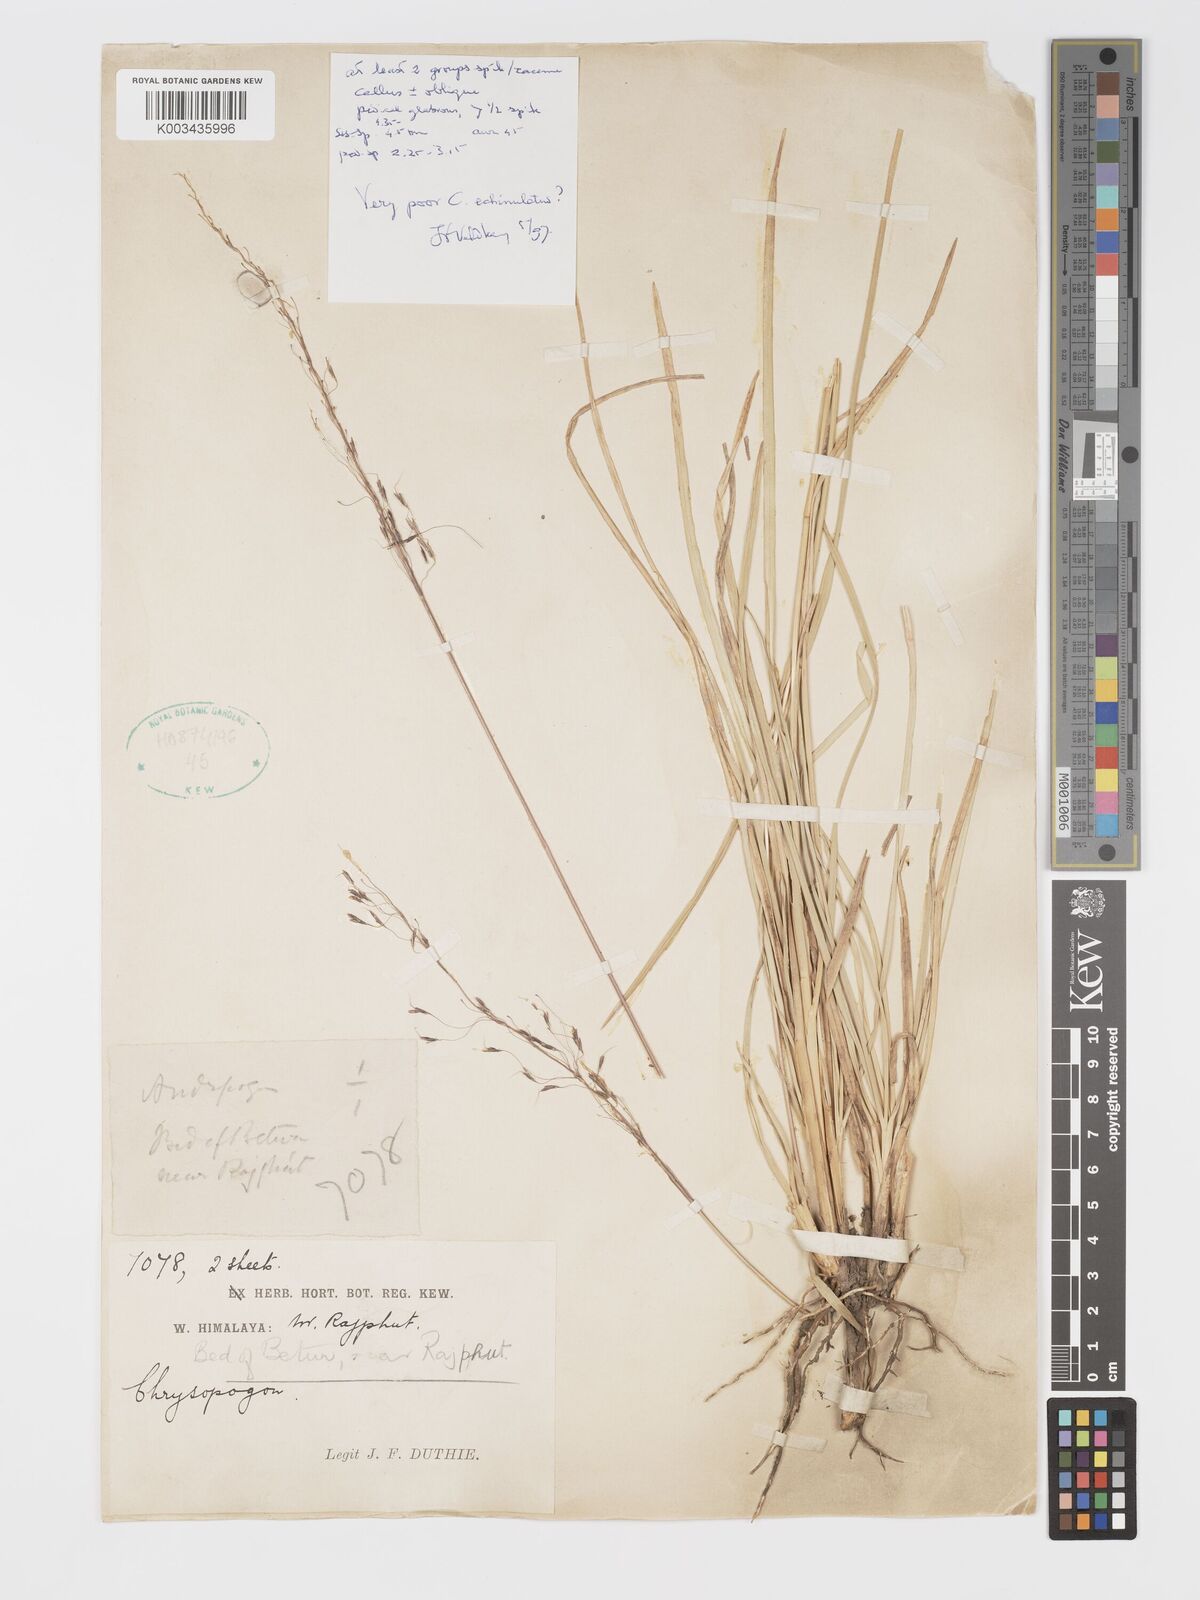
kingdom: Plantae
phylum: Tracheophyta
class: Liliopsida
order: Poales
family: Poaceae
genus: Chrysopogon
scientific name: Chrysopogon gryllus
